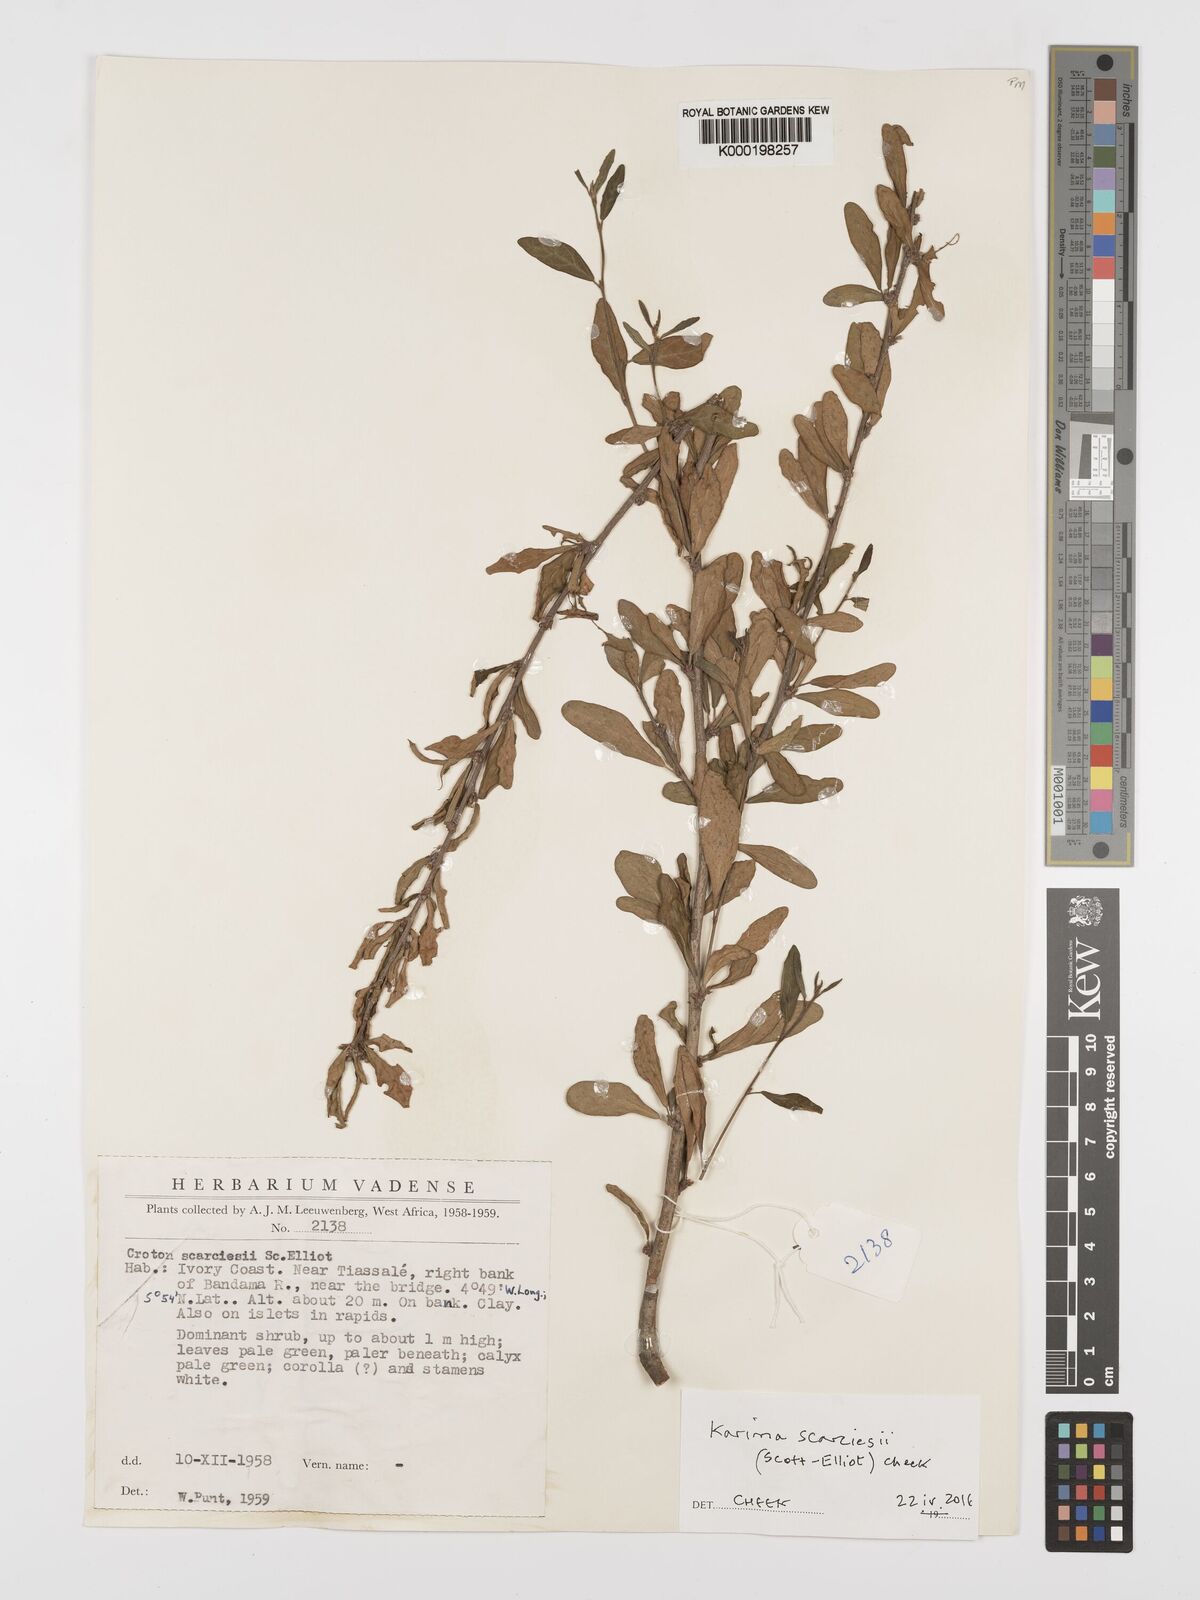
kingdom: Plantae
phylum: Tracheophyta
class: Magnoliopsida
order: Fabales
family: Polygalaceae
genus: Carpolobia
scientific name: Carpolobia
